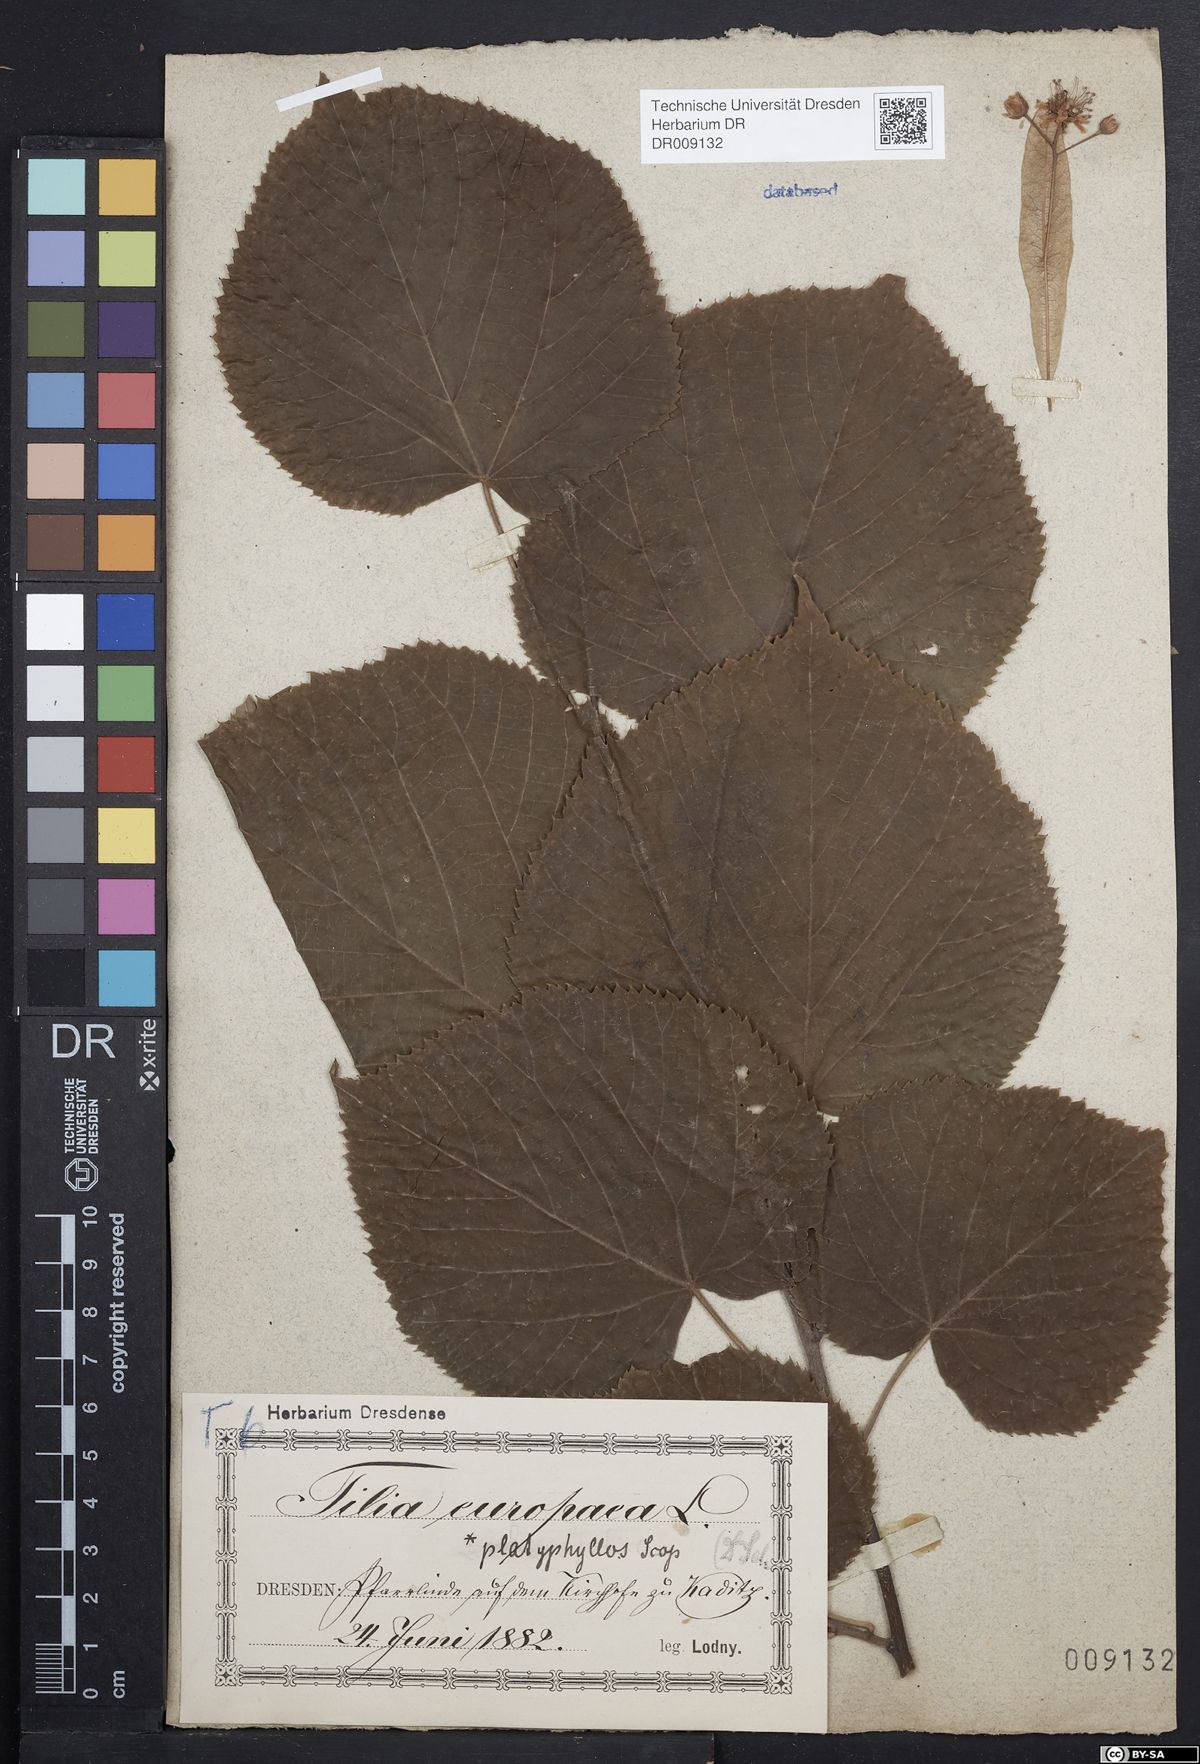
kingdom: Plantae
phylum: Tracheophyta
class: Magnoliopsida
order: Malvales
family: Malvaceae
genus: Tilia
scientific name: Tilia platyphyllos
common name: Large-leaved lime
